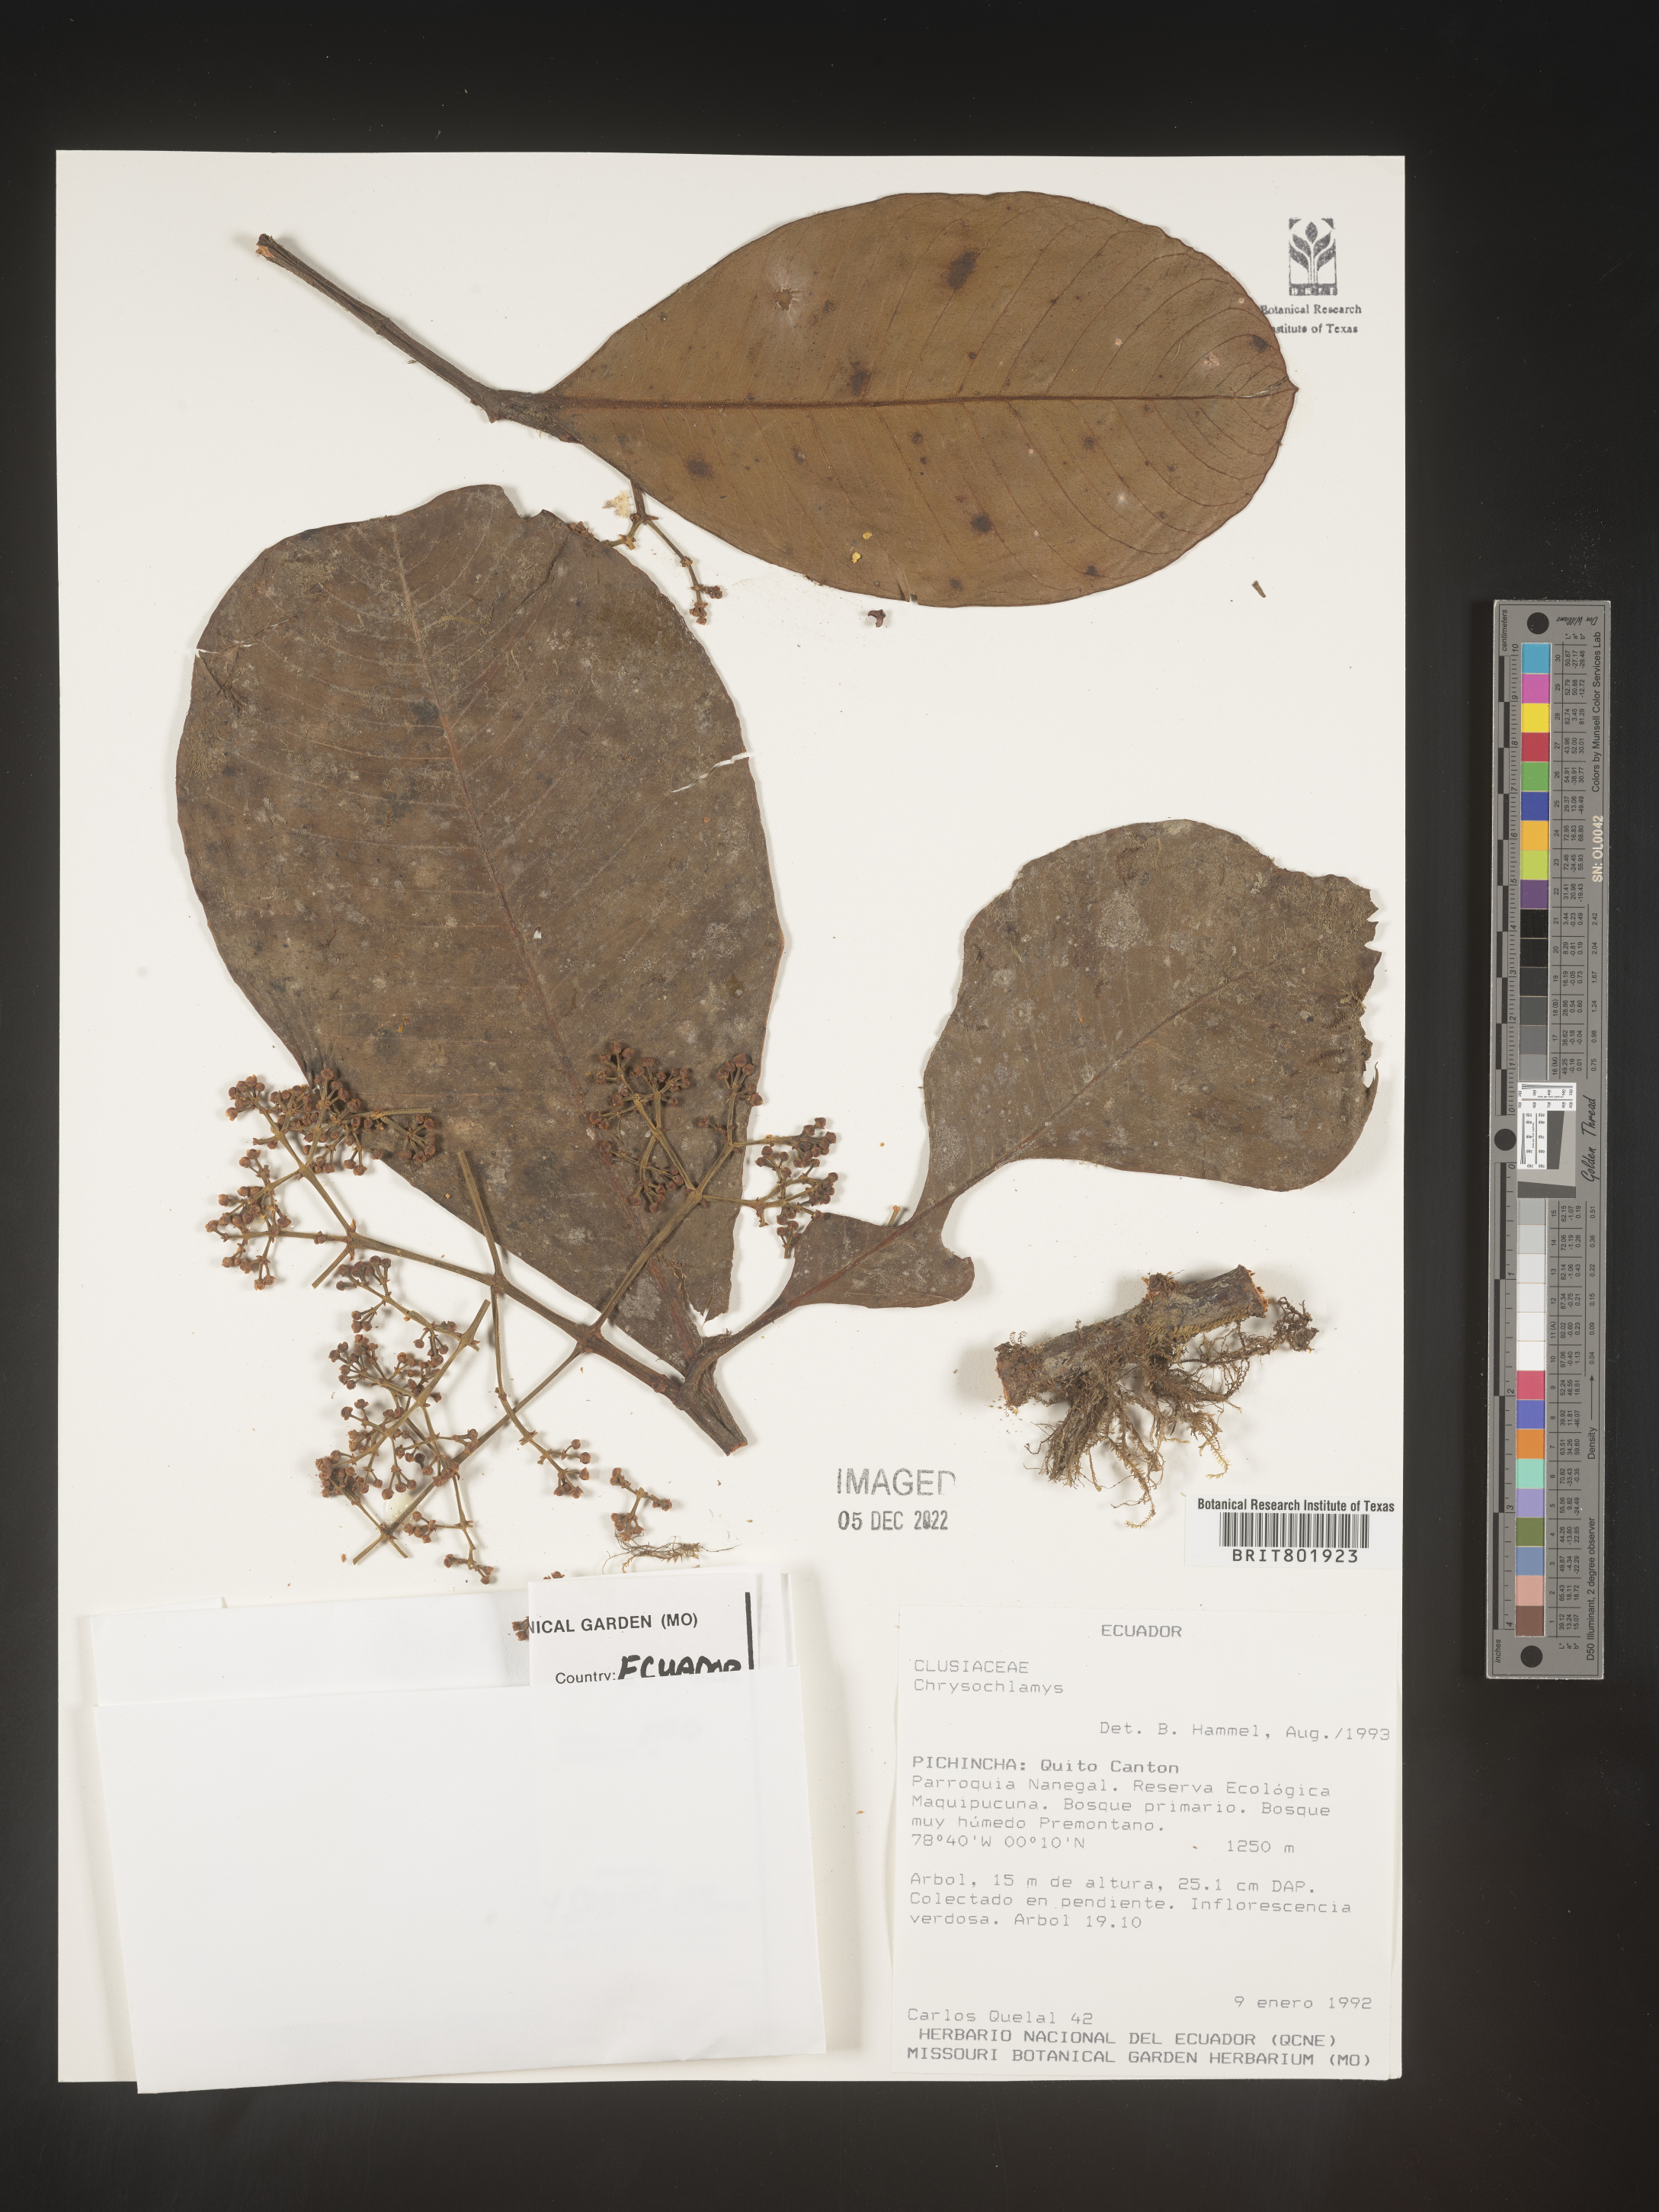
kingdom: Plantae
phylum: Tracheophyta
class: Magnoliopsida
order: Malpighiales
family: Clusiaceae
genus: Chrysochlamys
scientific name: Chrysochlamys
